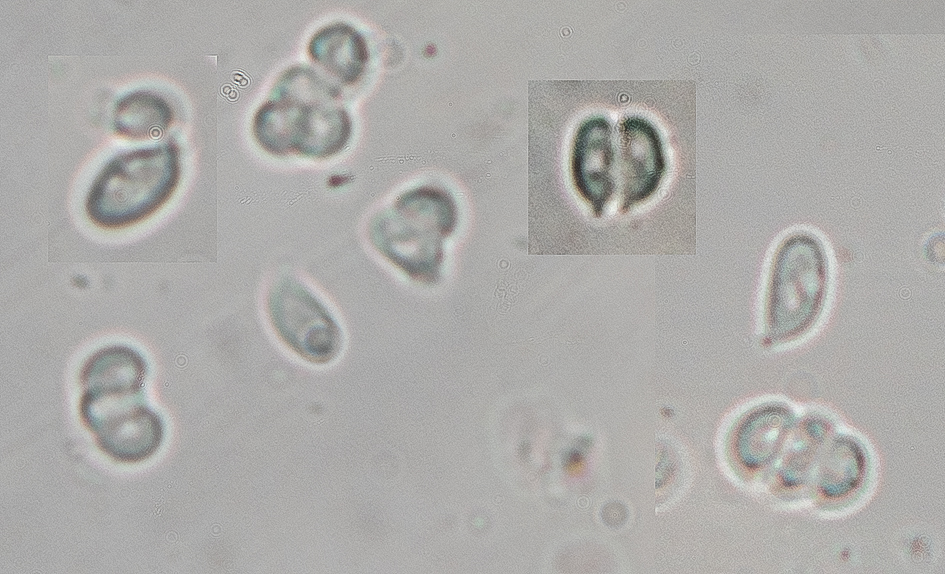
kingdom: Fungi
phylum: Basidiomycota
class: Agaricomycetes
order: Agaricales
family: Tricholomataceae
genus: Omphalina
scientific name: Omphalina microsperma
